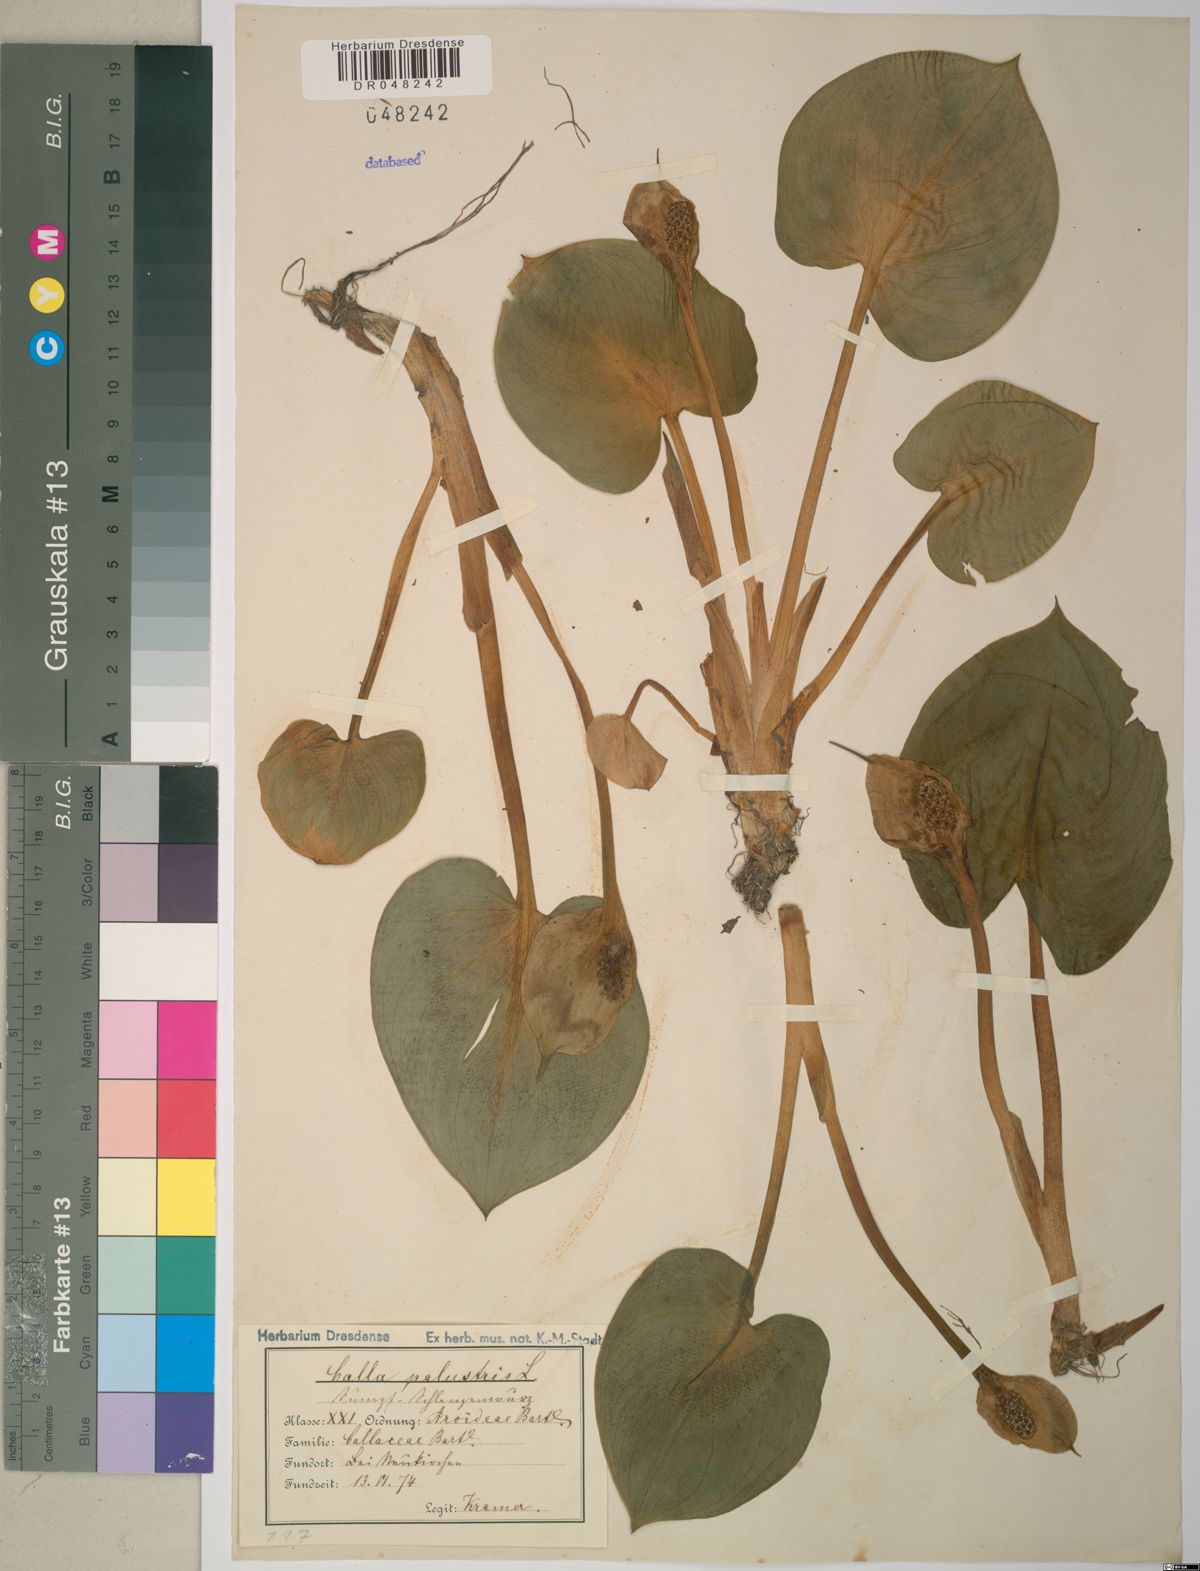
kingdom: Plantae
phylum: Tracheophyta
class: Liliopsida
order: Alismatales
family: Araceae
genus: Calla
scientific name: Calla palustris
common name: Bog arum
